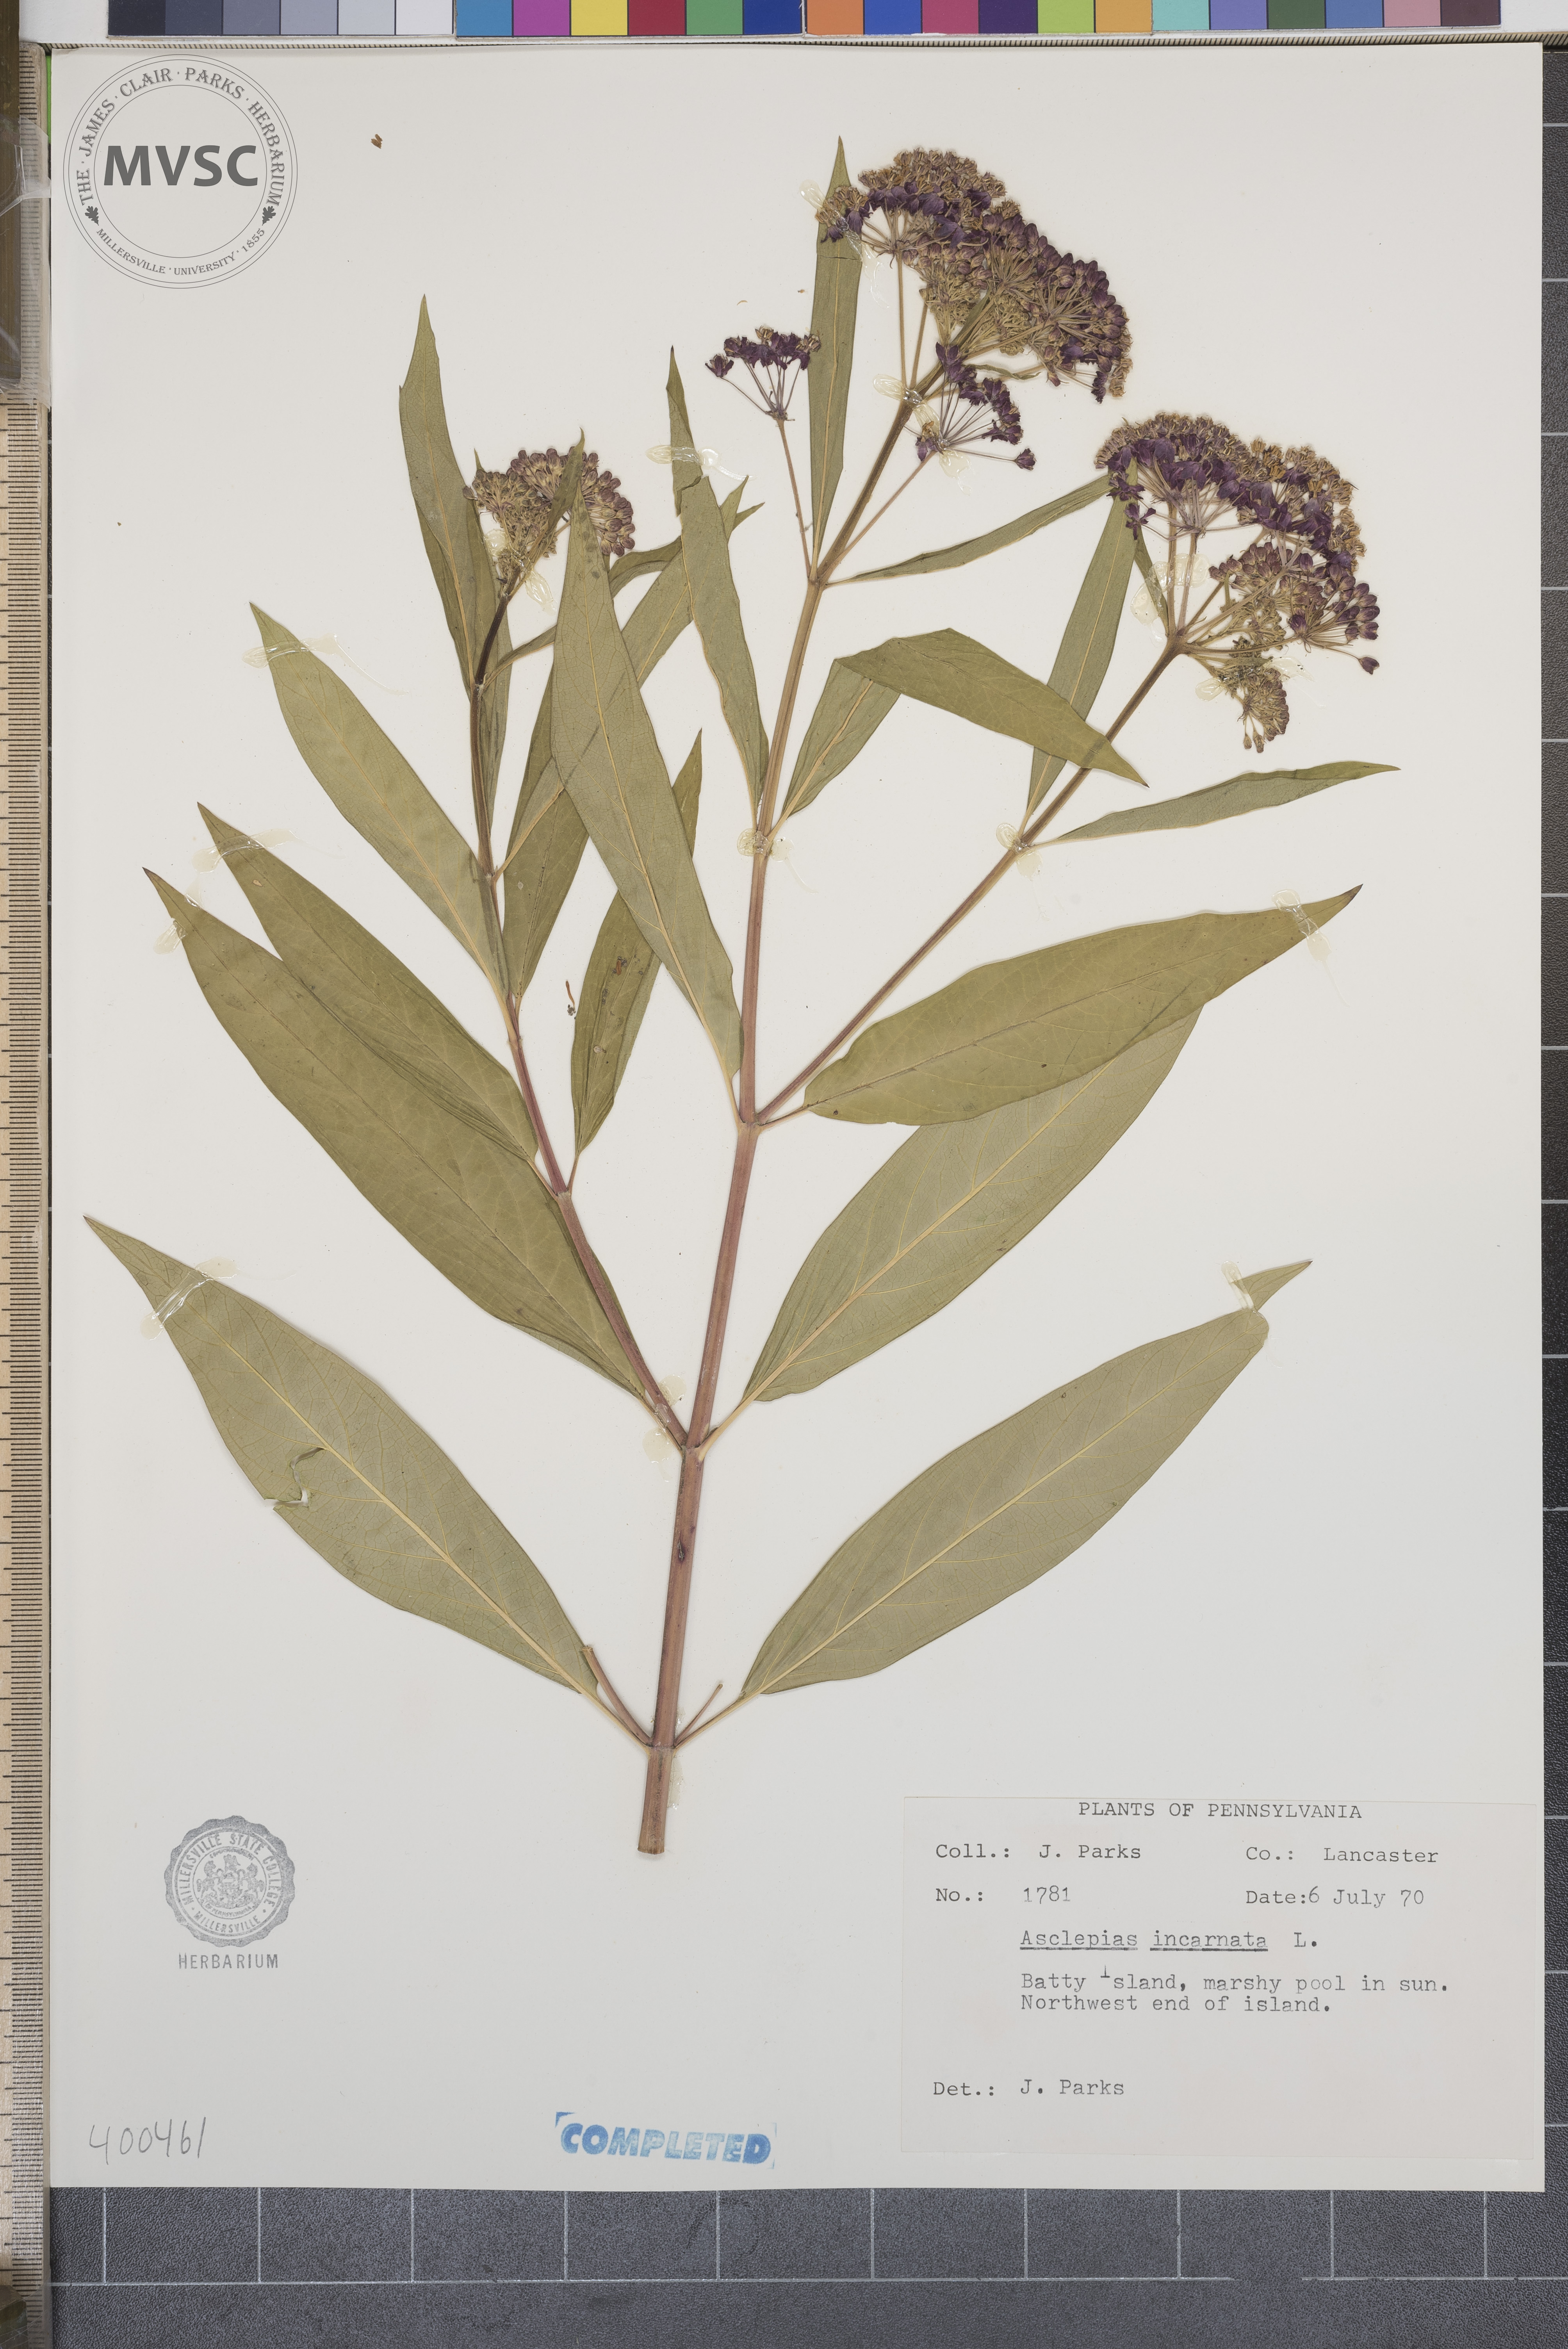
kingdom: Plantae
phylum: Tracheophyta
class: Magnoliopsida
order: Gentianales
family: Apocynaceae
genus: Asclepias
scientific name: Asclepias incarnata
